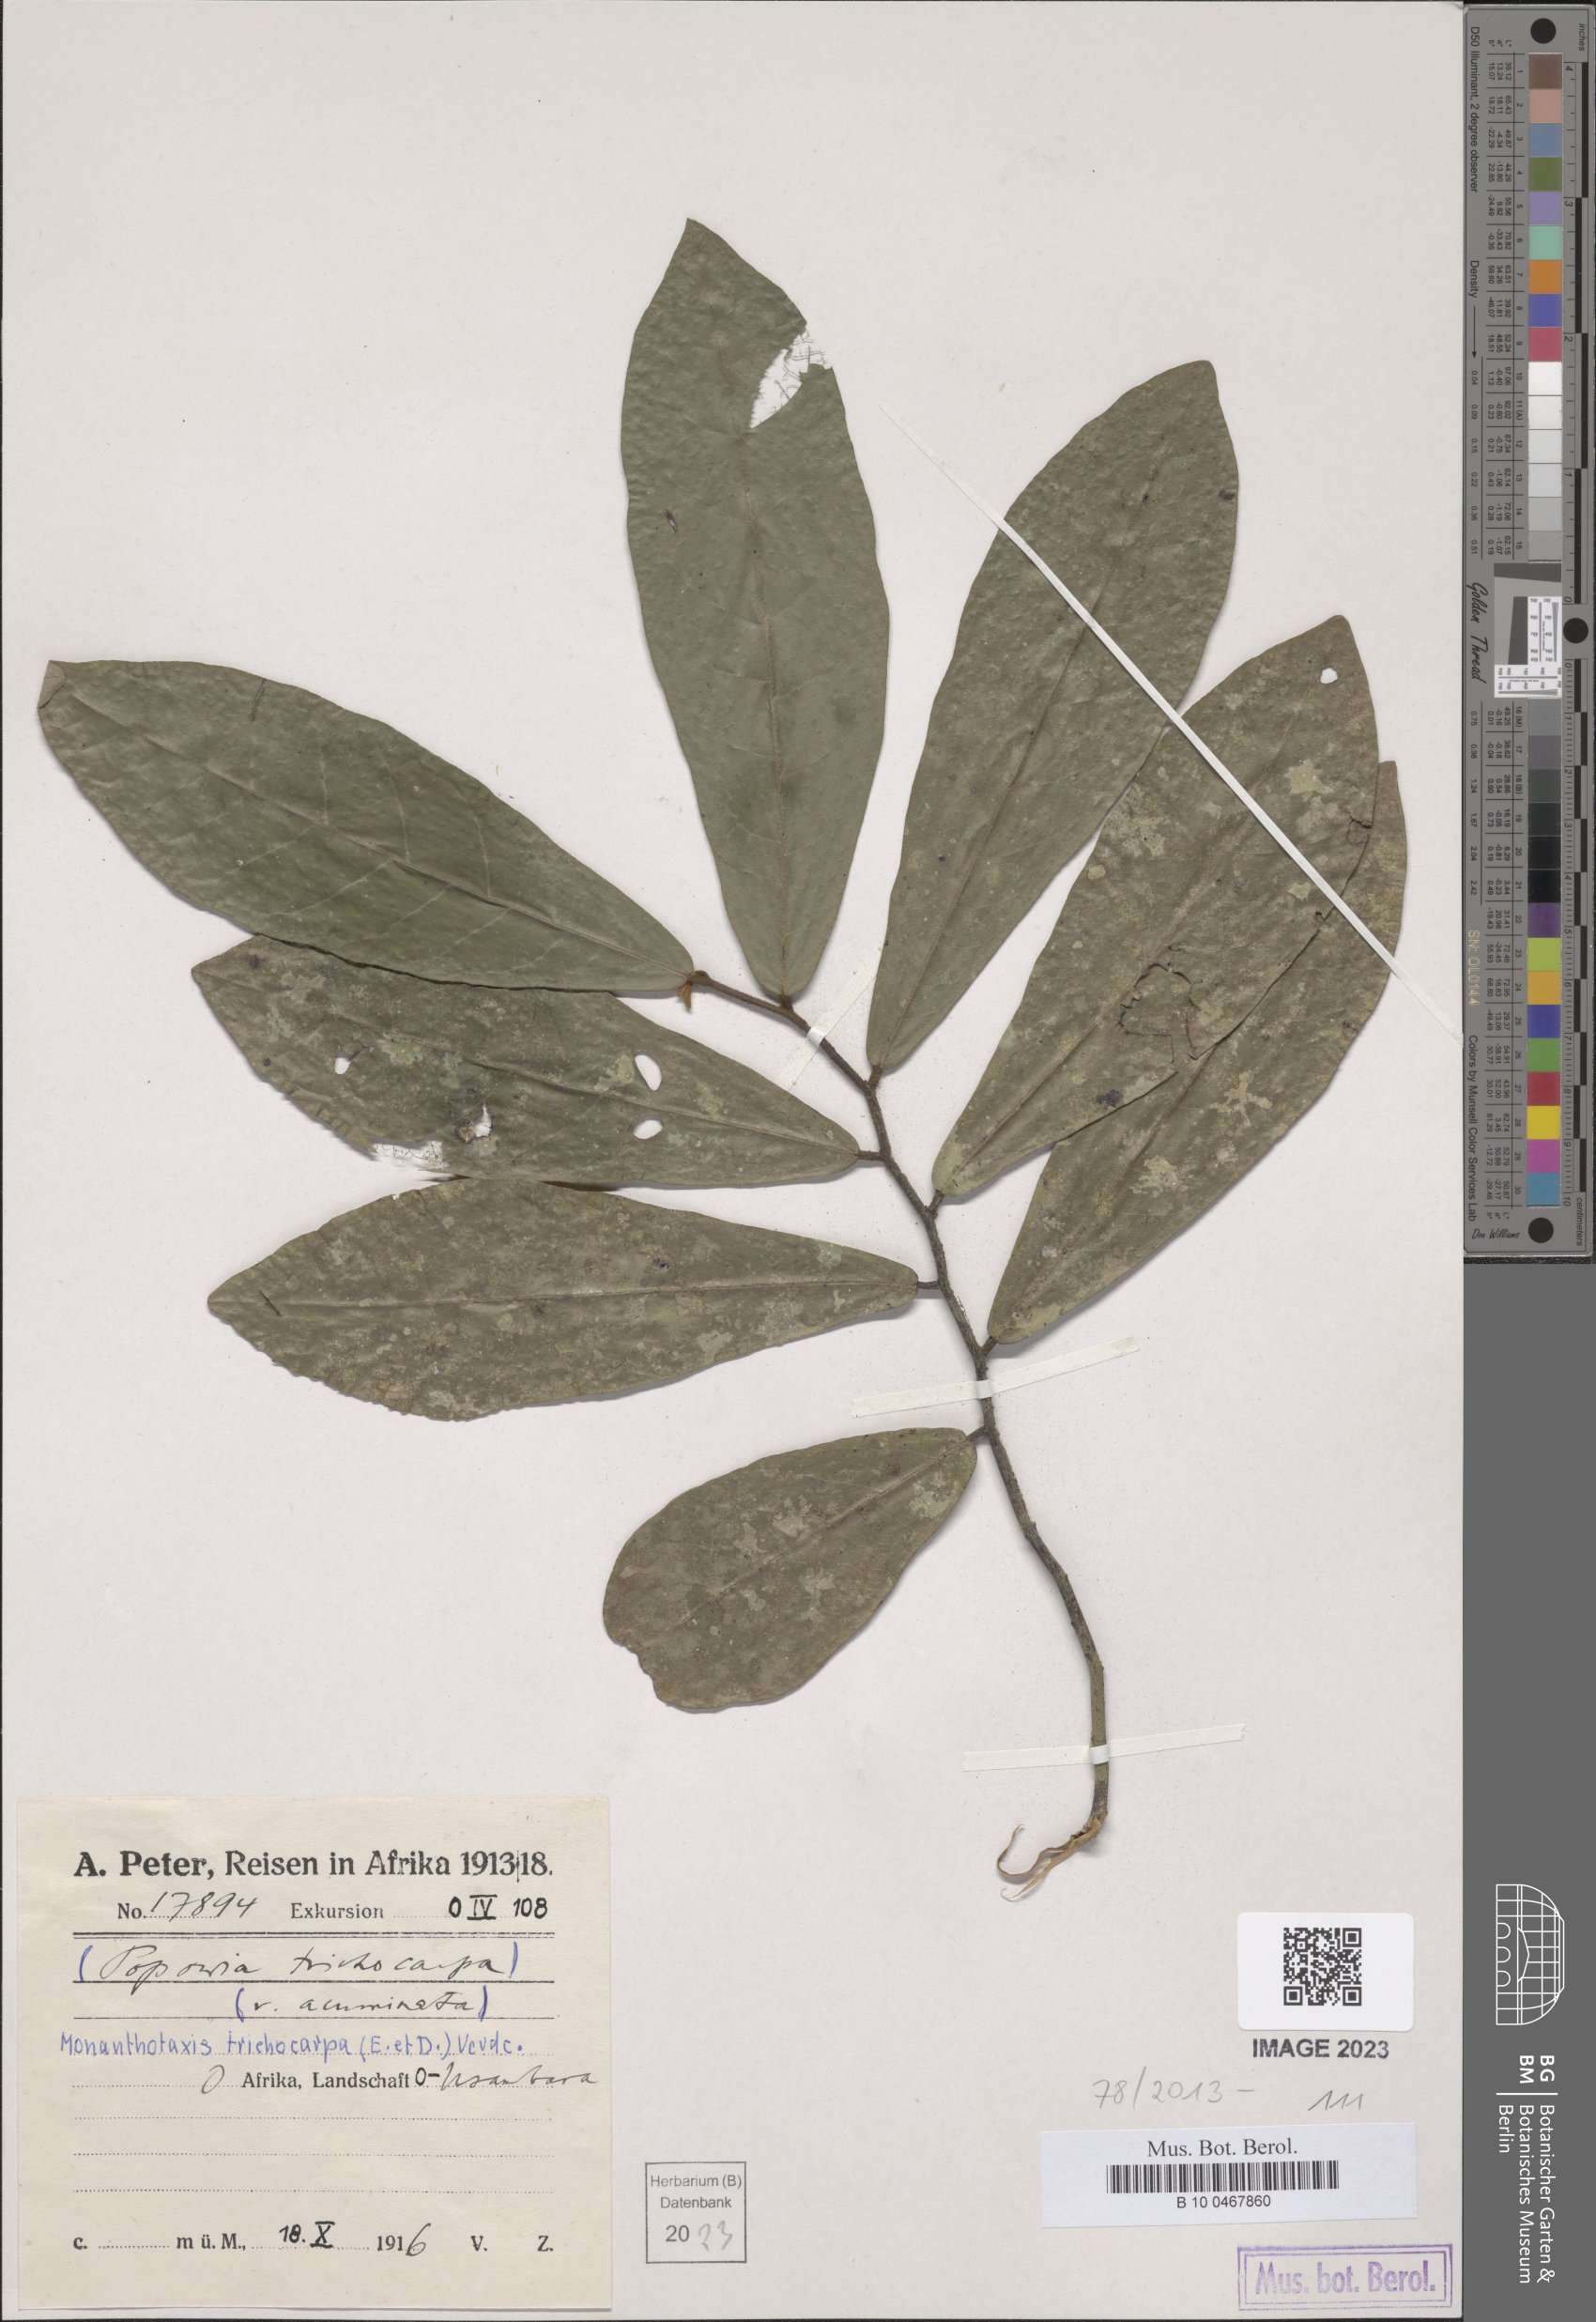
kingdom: Plantae
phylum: Tracheophyta
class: Magnoliopsida
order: Magnoliales
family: Annonaceae
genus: Monanthotaxis
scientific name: Monanthotaxis trichocarpa
